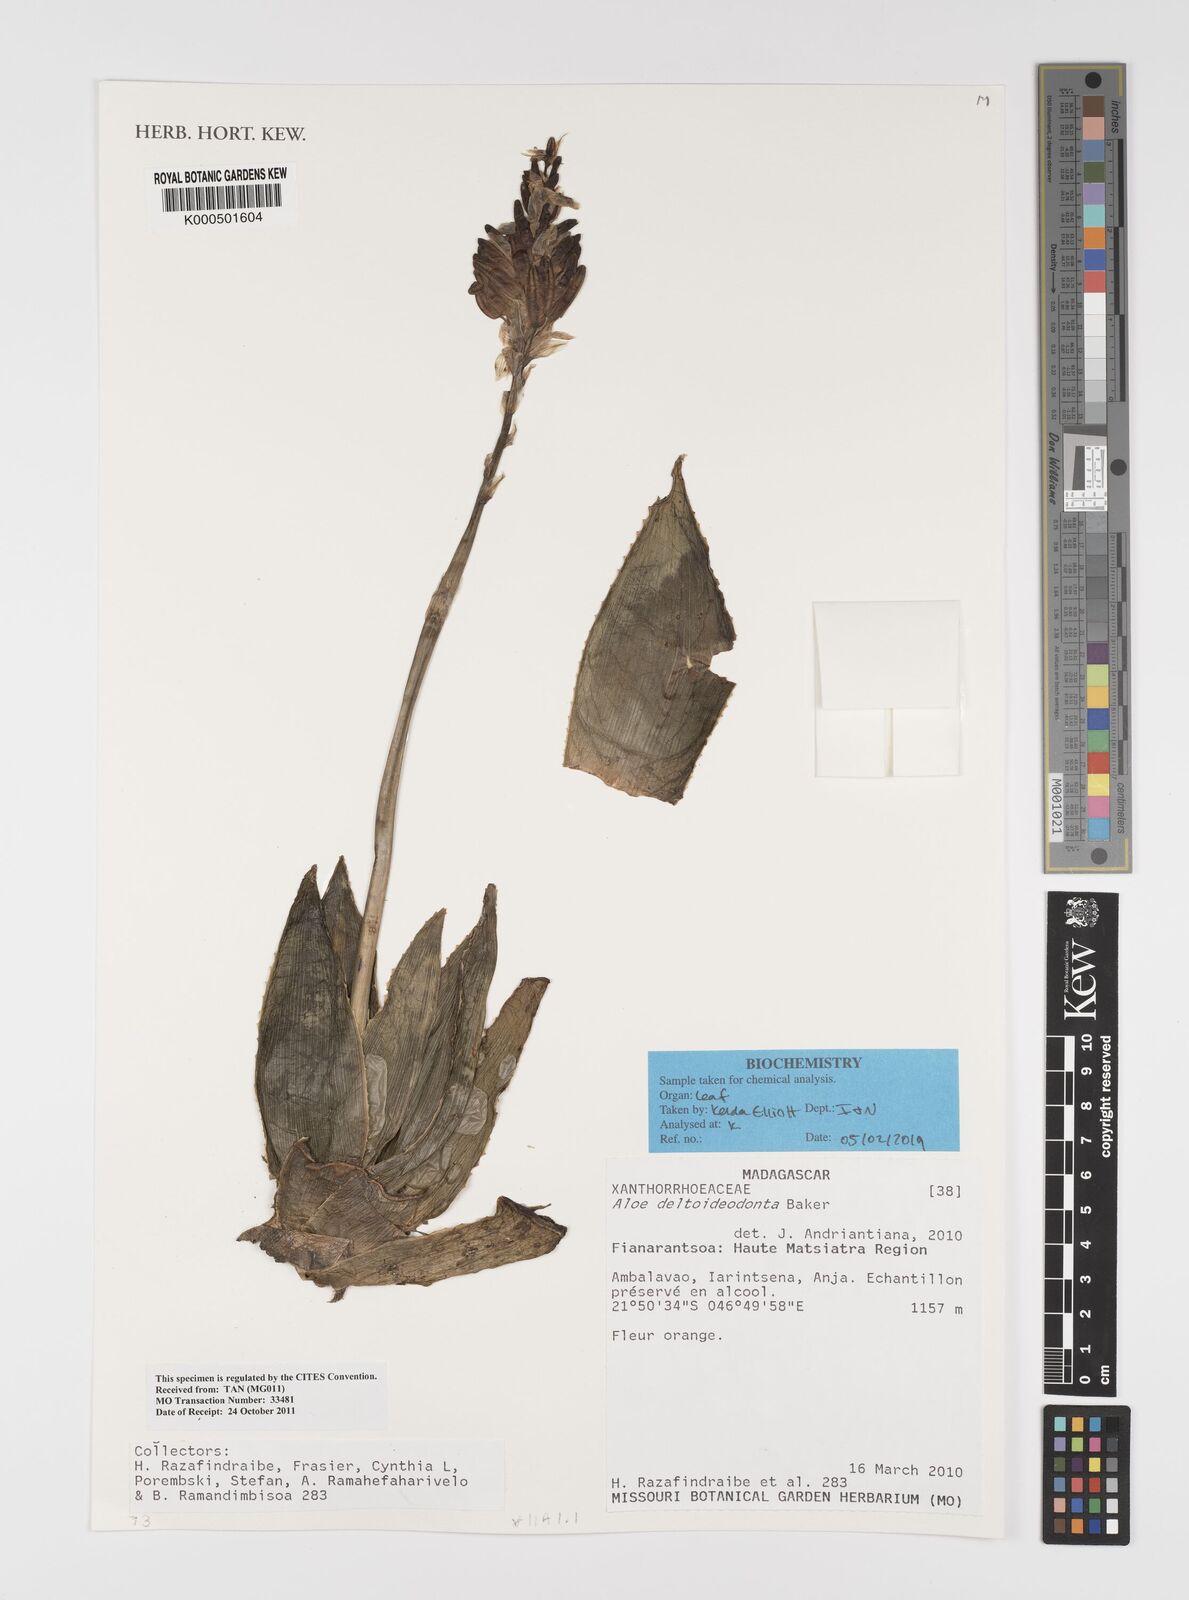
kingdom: Plantae
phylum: Tracheophyta
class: Liliopsida
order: Asparagales
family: Asphodelaceae
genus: Aloe
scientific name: Aloe deltoideodonta
